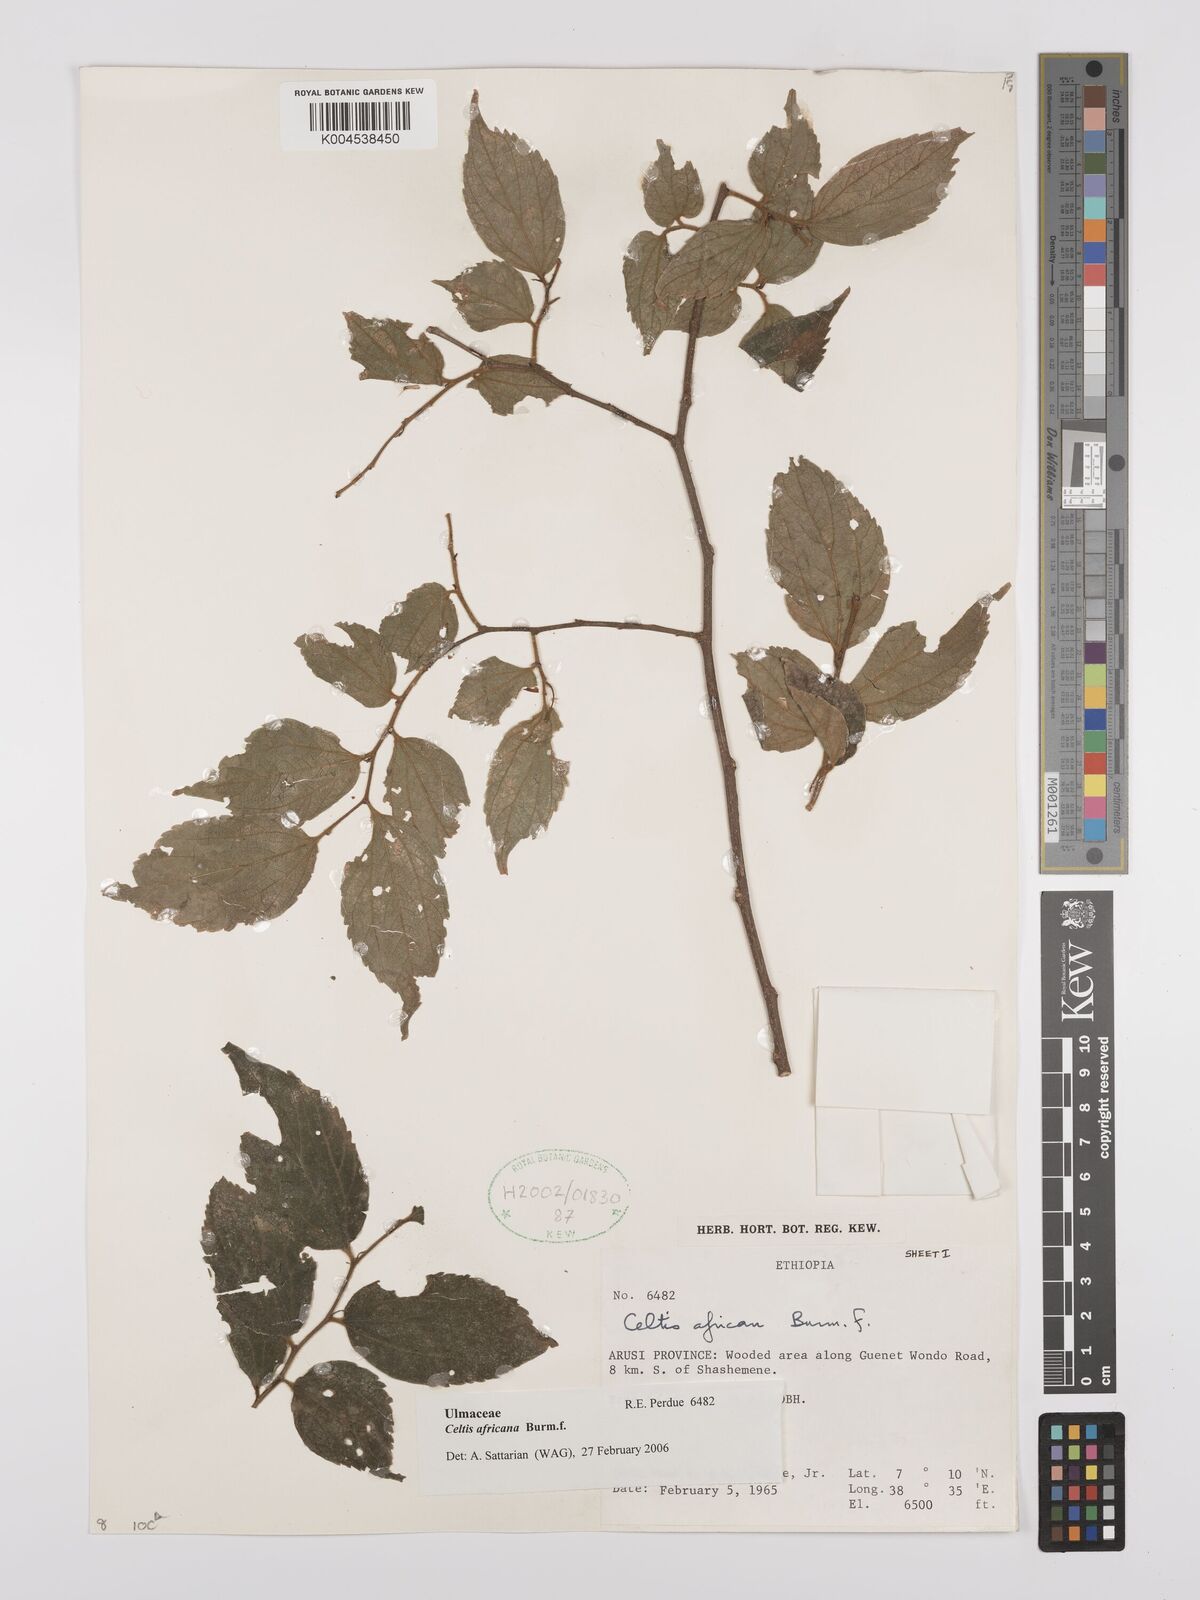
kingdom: Plantae
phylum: Tracheophyta
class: Magnoliopsida
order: Rosales
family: Cannabaceae
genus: Celtis
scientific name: Celtis africana
